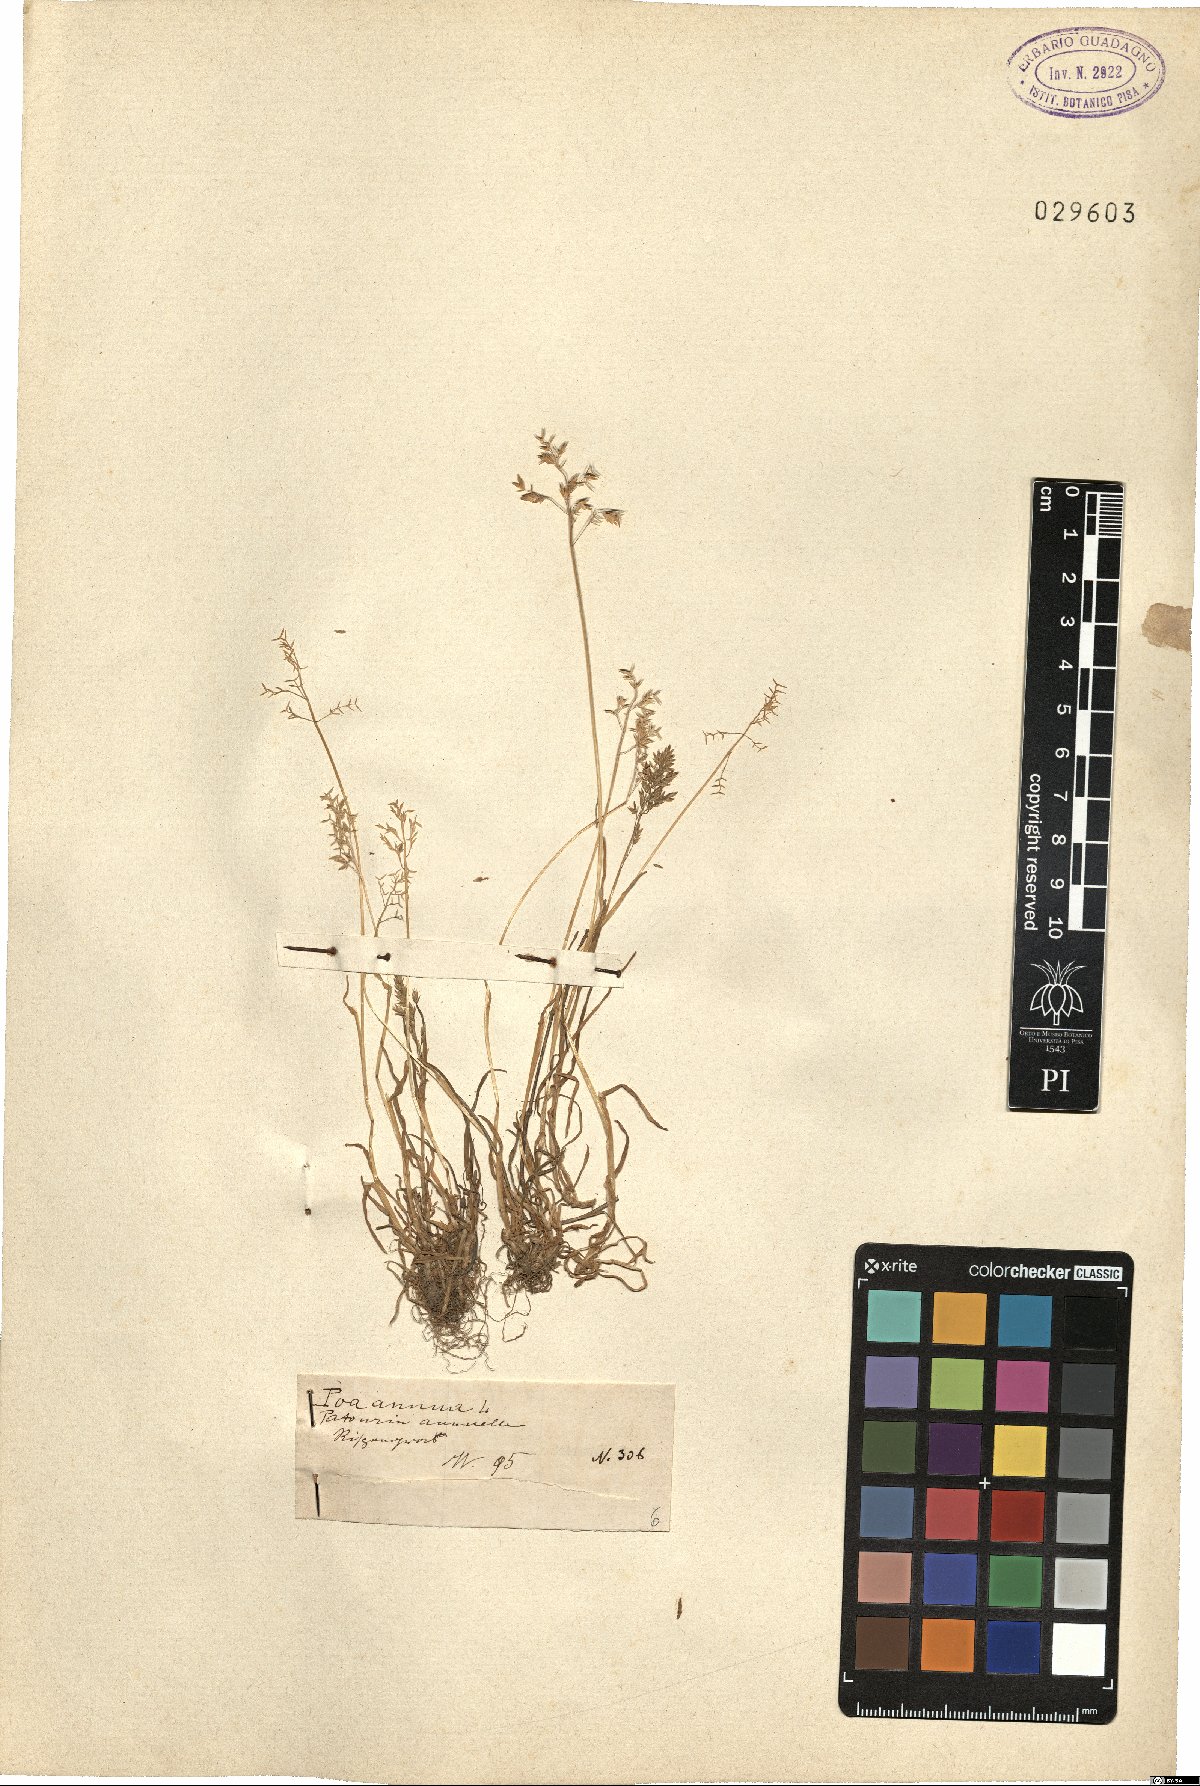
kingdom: Plantae
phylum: Tracheophyta
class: Liliopsida
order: Poales
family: Poaceae
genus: Poa
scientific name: Poa annua
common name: Annual bluegrass
